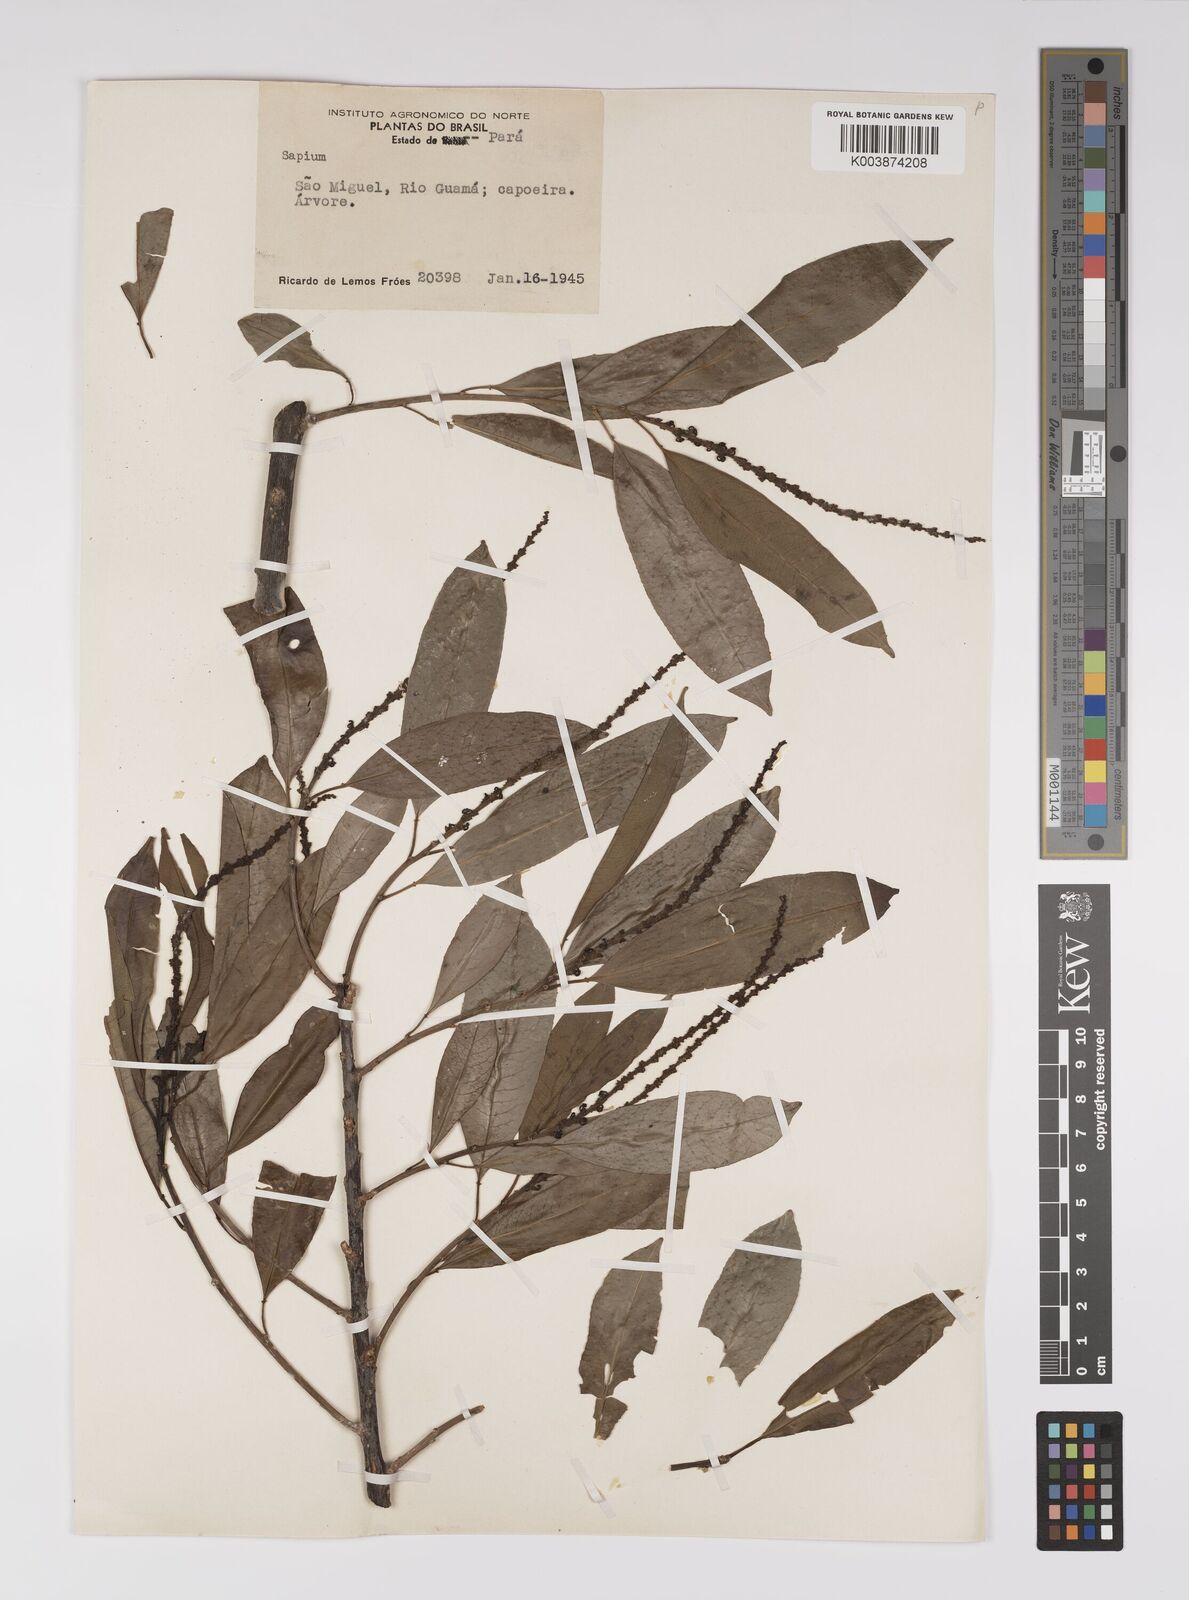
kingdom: Plantae
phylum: Tracheophyta
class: Magnoliopsida
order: Malpighiales
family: Euphorbiaceae
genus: Sapium
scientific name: Sapium
